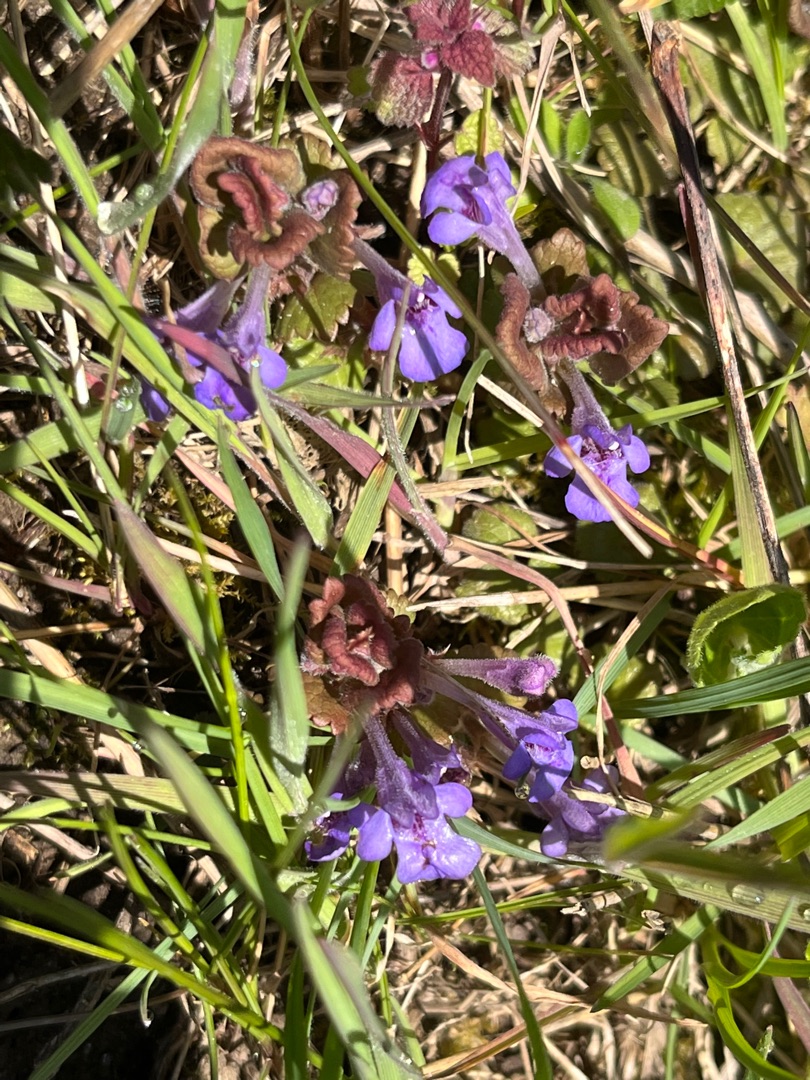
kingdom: Plantae
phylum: Tracheophyta
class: Magnoliopsida
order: Lamiales
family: Lamiaceae
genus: Glechoma
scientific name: Glechoma hederacea
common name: Korsknap
